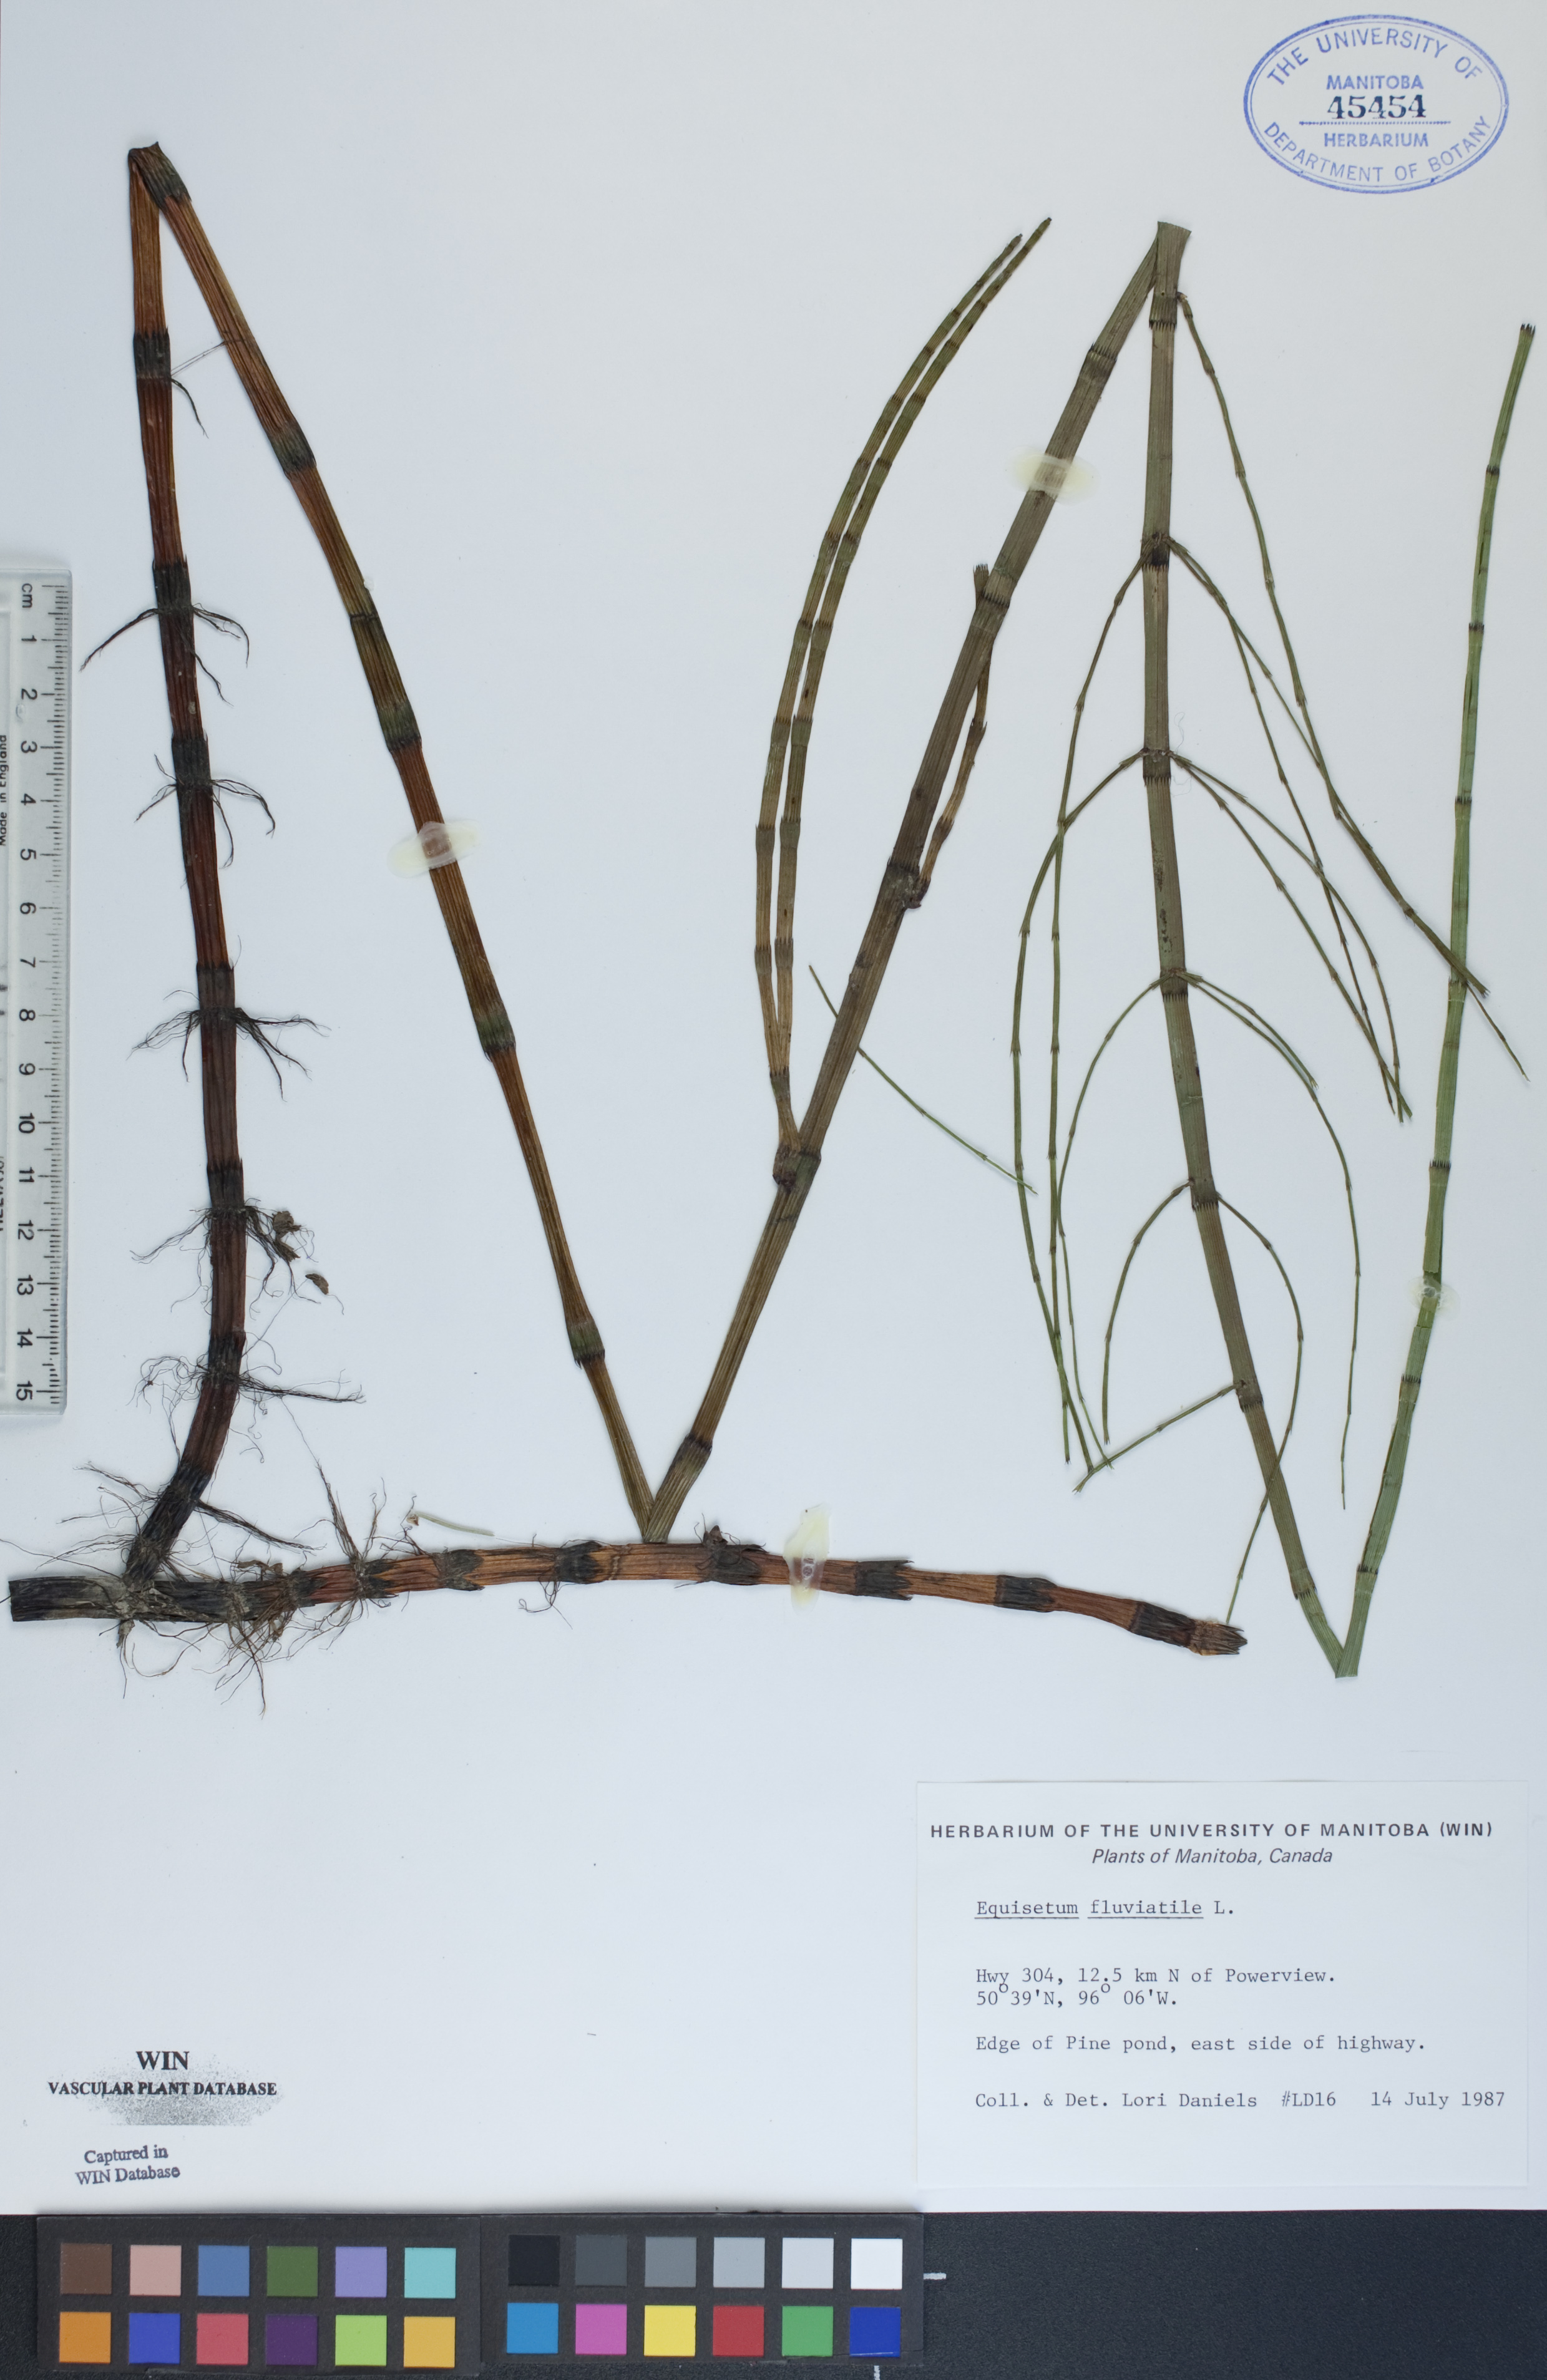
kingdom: Plantae
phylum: Tracheophyta
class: Polypodiopsida
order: Equisetales
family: Equisetaceae
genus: Equisetum
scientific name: Equisetum fluviatile
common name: Water horsetail
